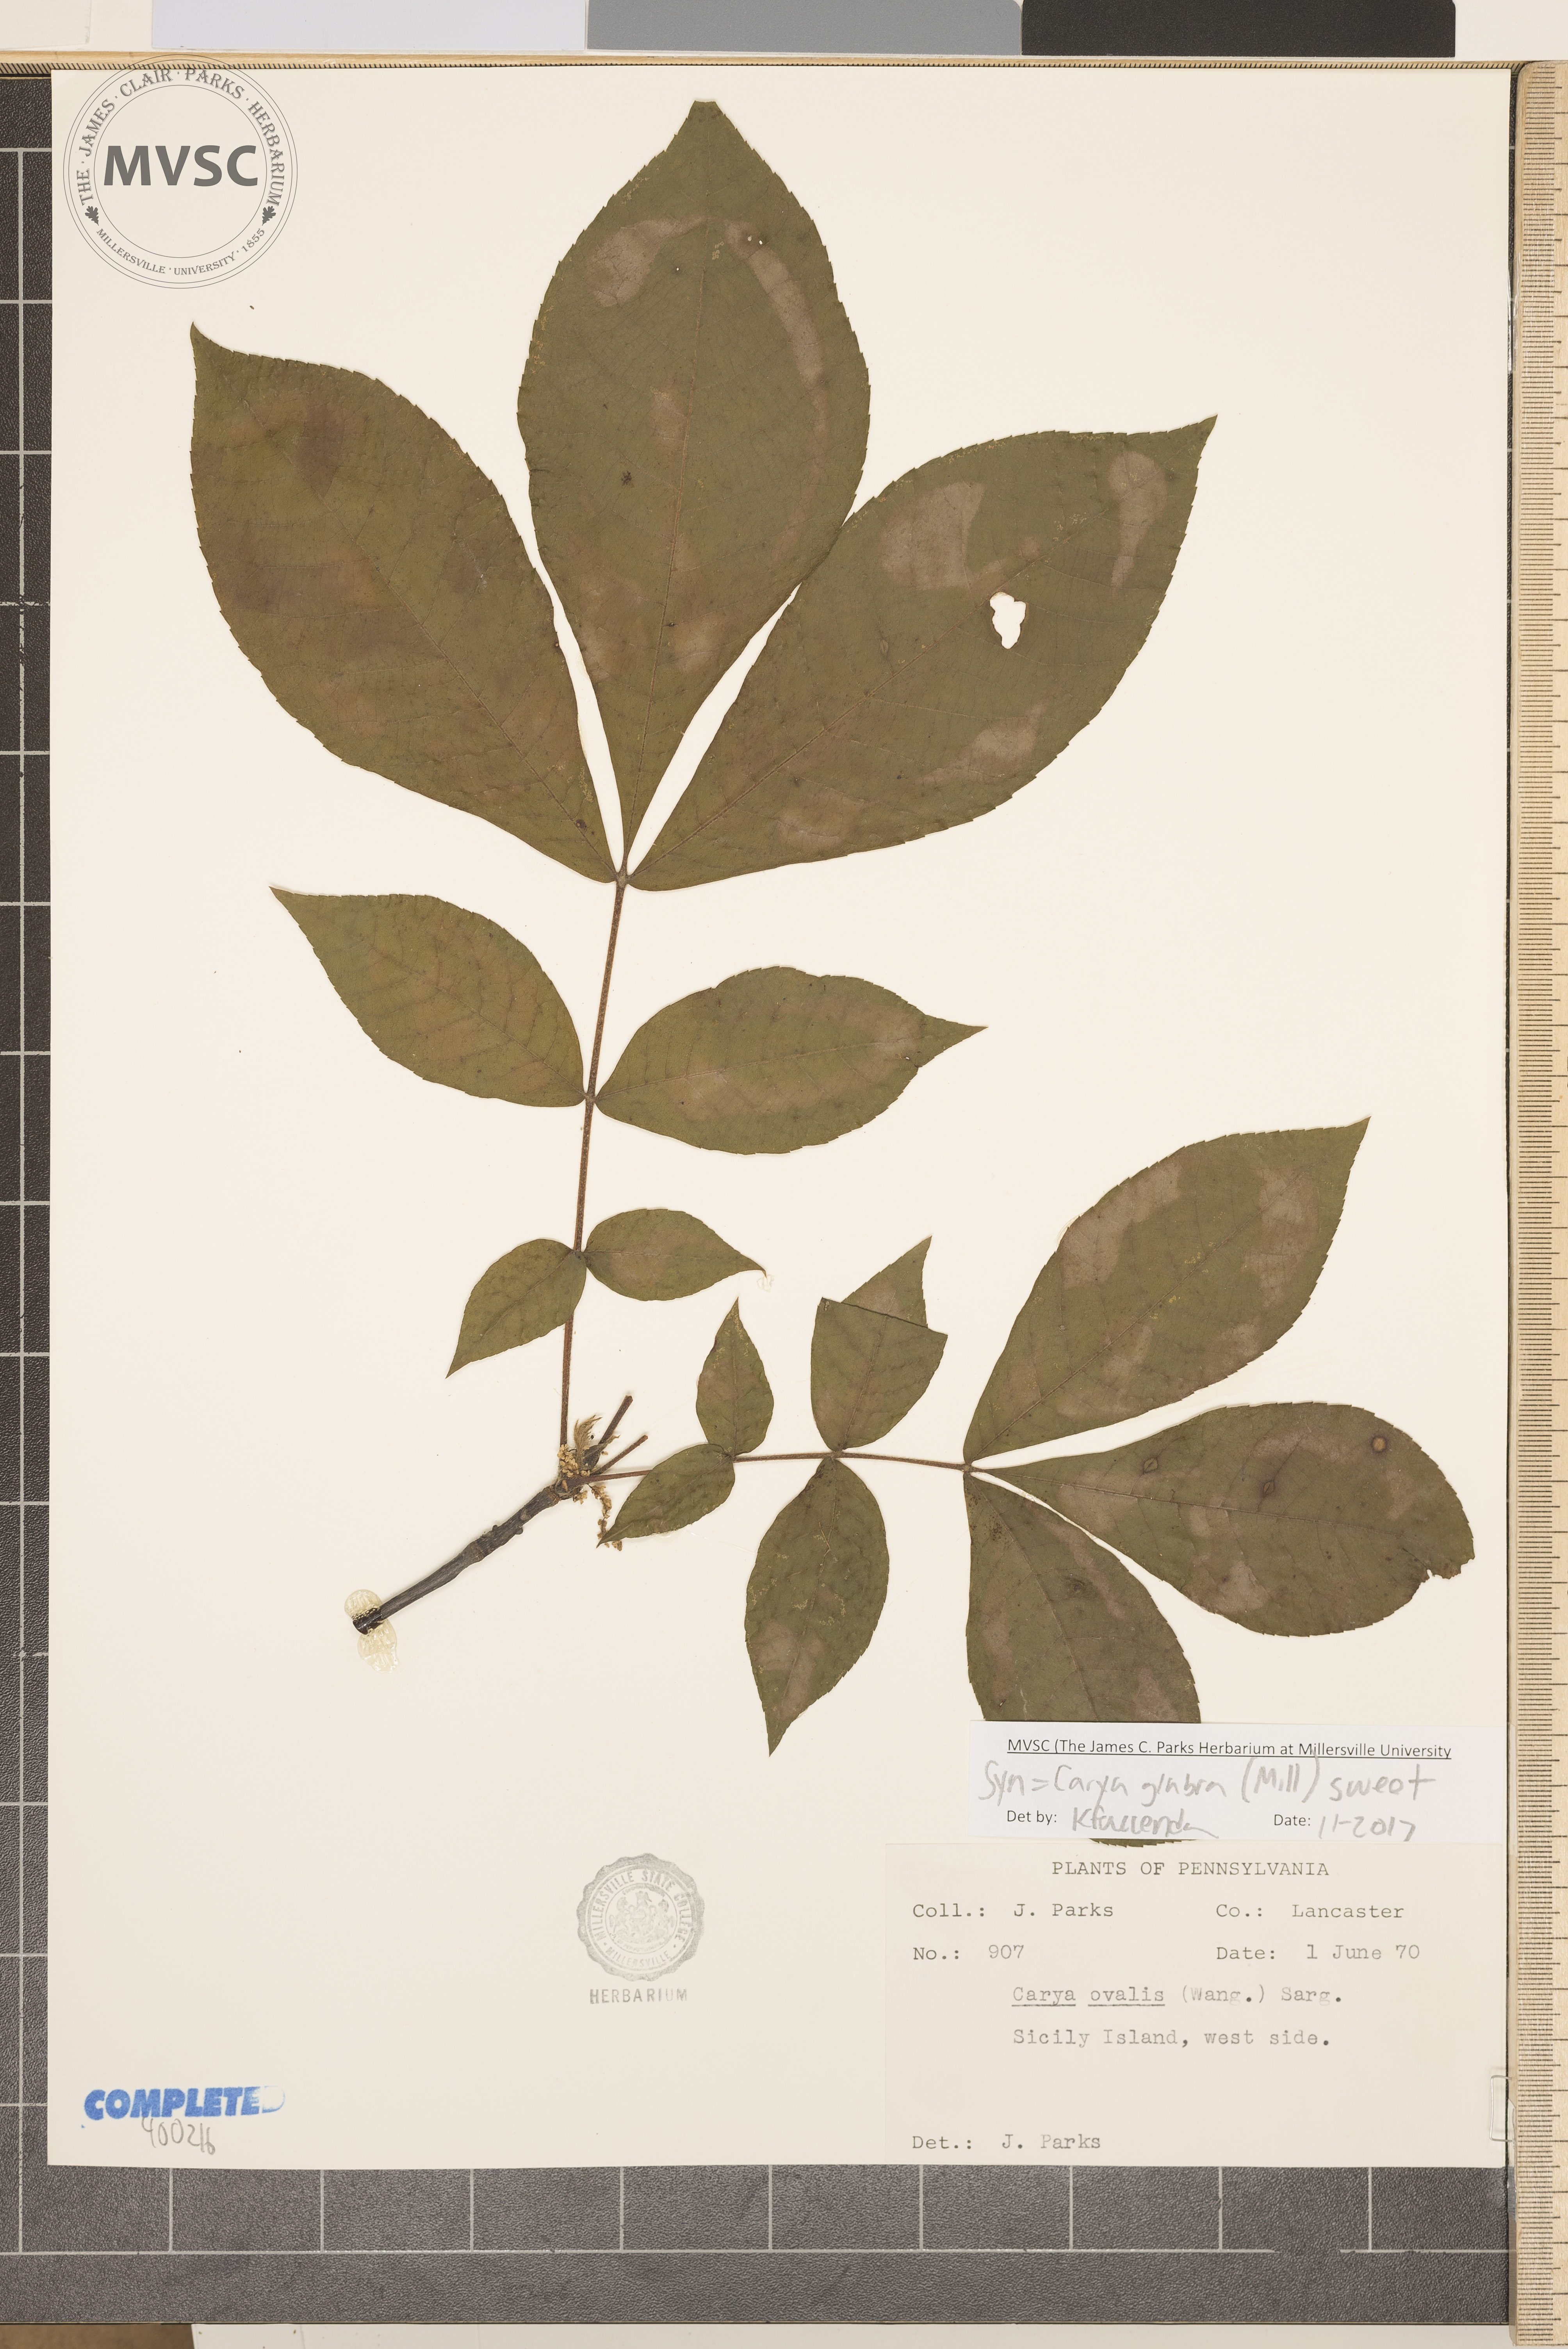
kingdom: Plantae
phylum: Tracheophyta
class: Magnoliopsida
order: Fagales
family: Juglandaceae
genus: Carya
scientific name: Carya glabra
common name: red hickory
